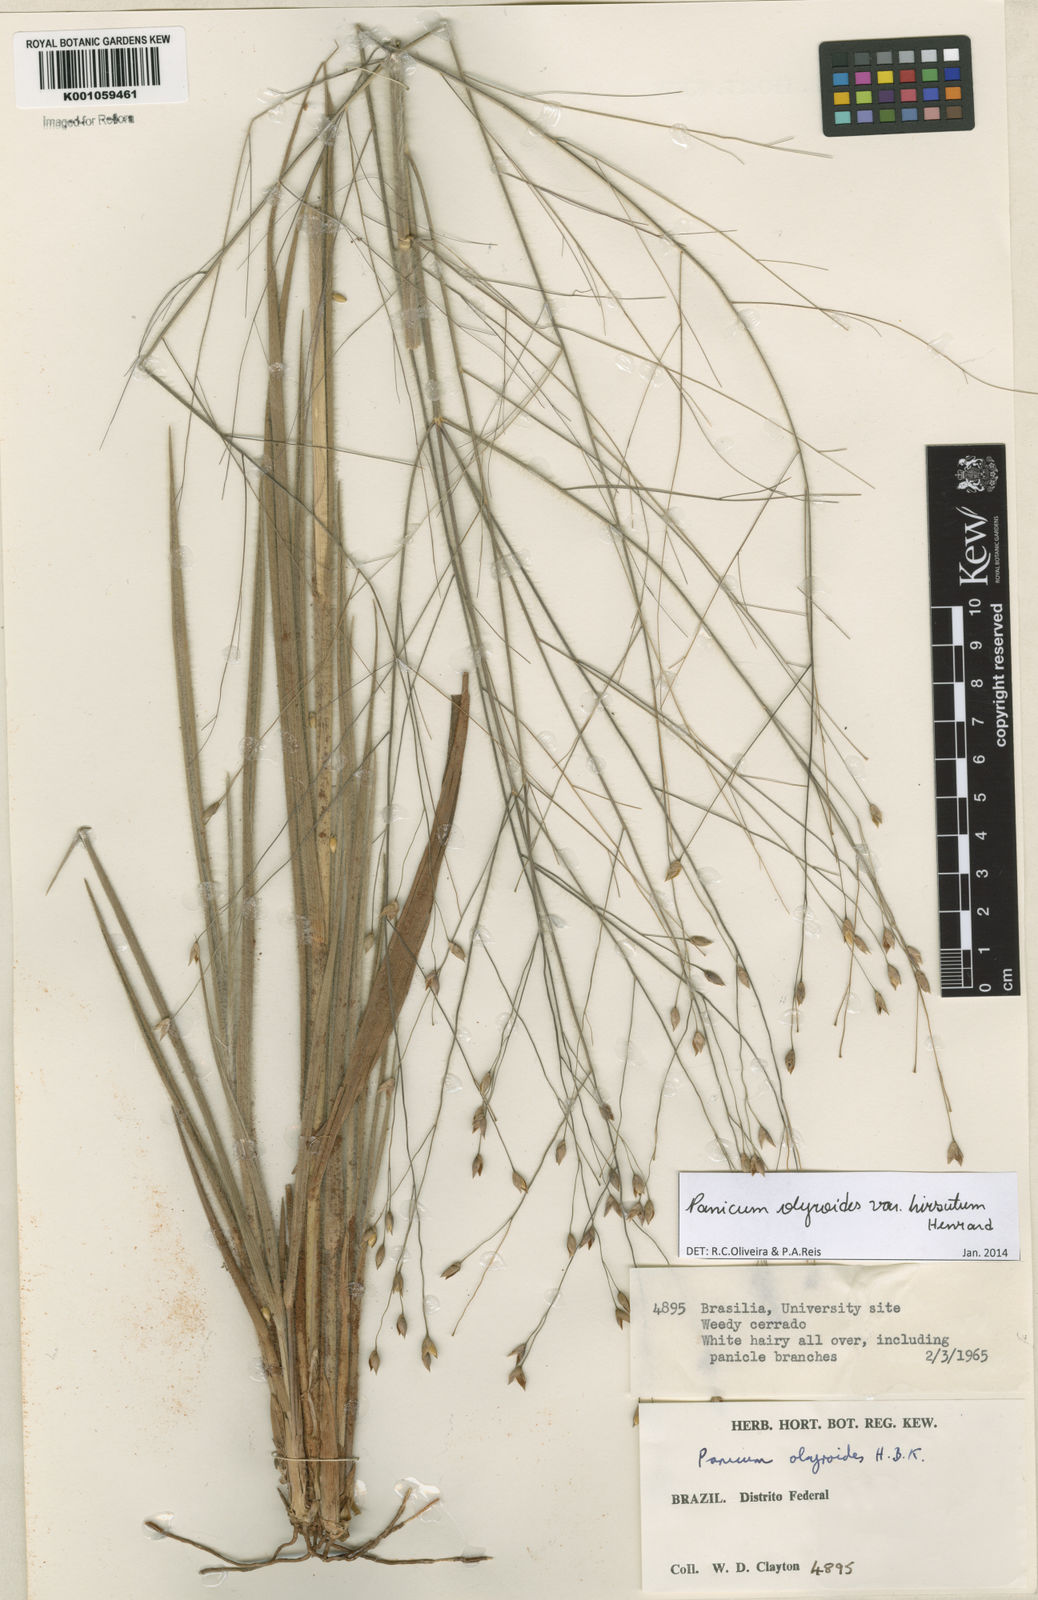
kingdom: Plantae
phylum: Tracheophyta
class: Liliopsida
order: Poales
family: Poaceae
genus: Panicum
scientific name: Panicum olyroides
